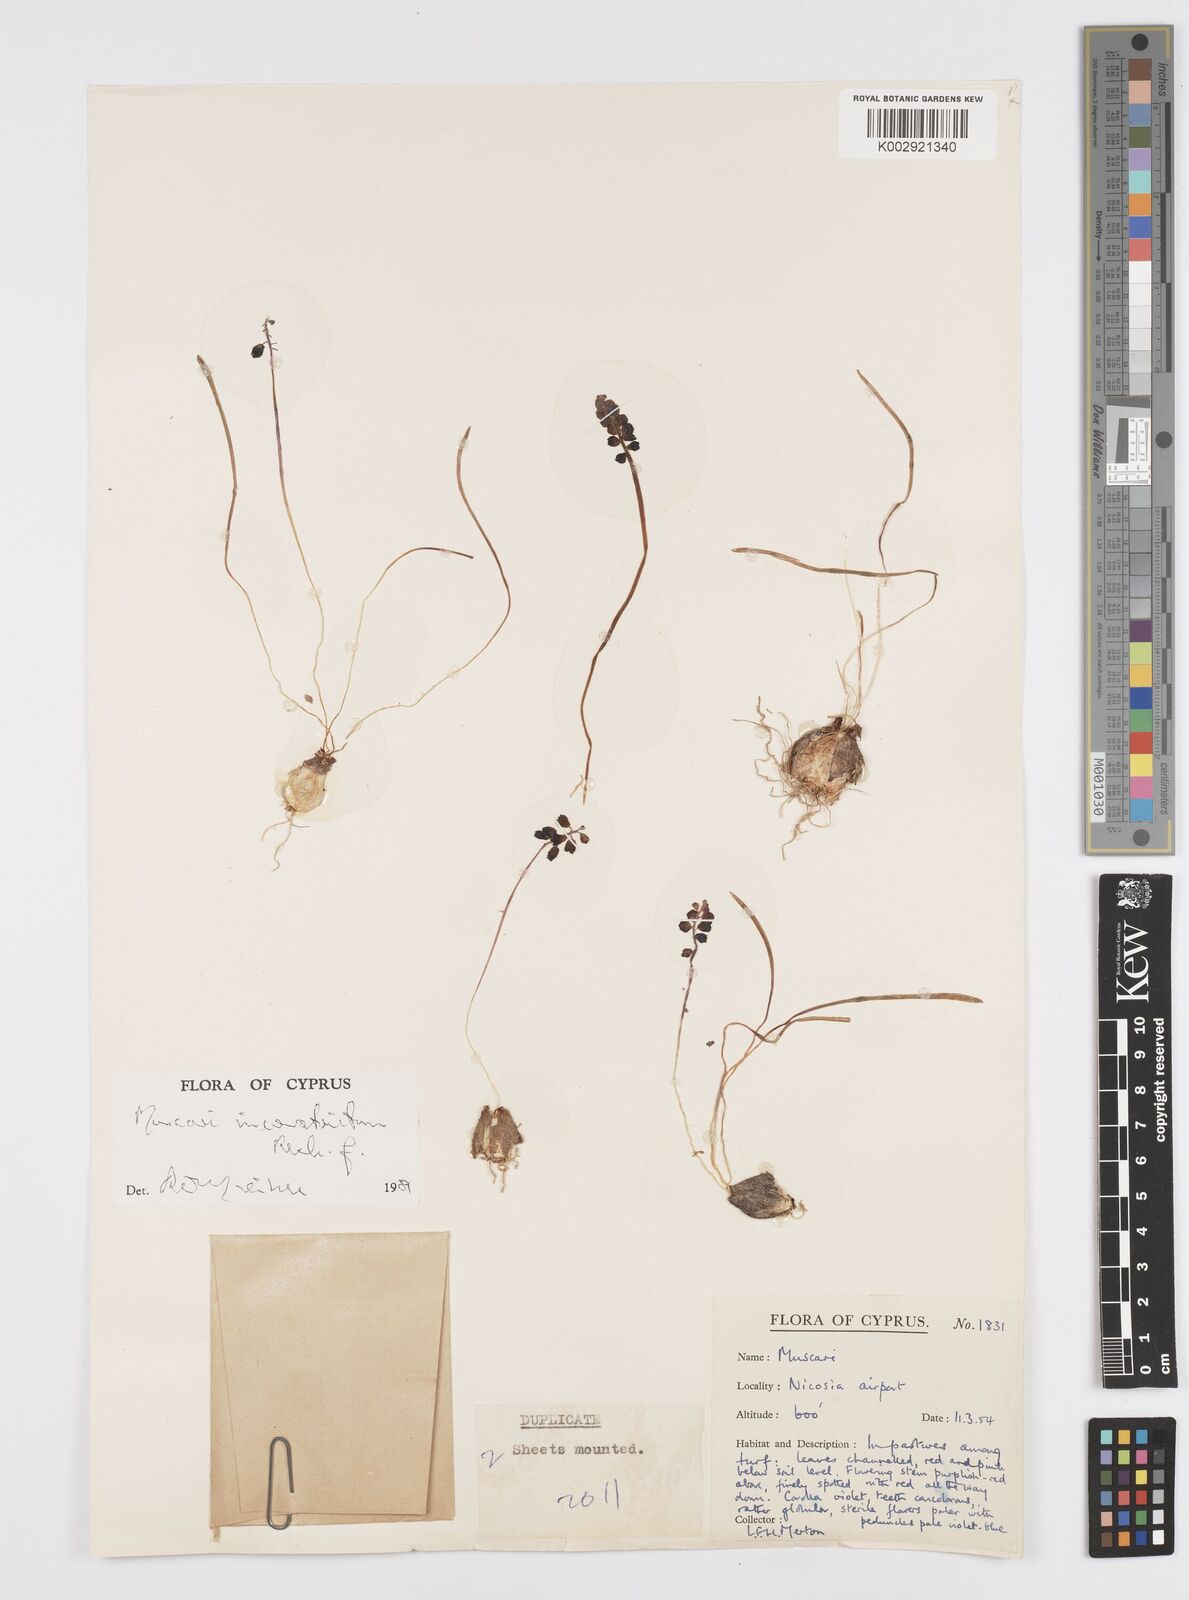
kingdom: Plantae
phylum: Tracheophyta
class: Liliopsida
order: Asparagales
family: Asparagaceae
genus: Muscari
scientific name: Muscari inconstrictum
